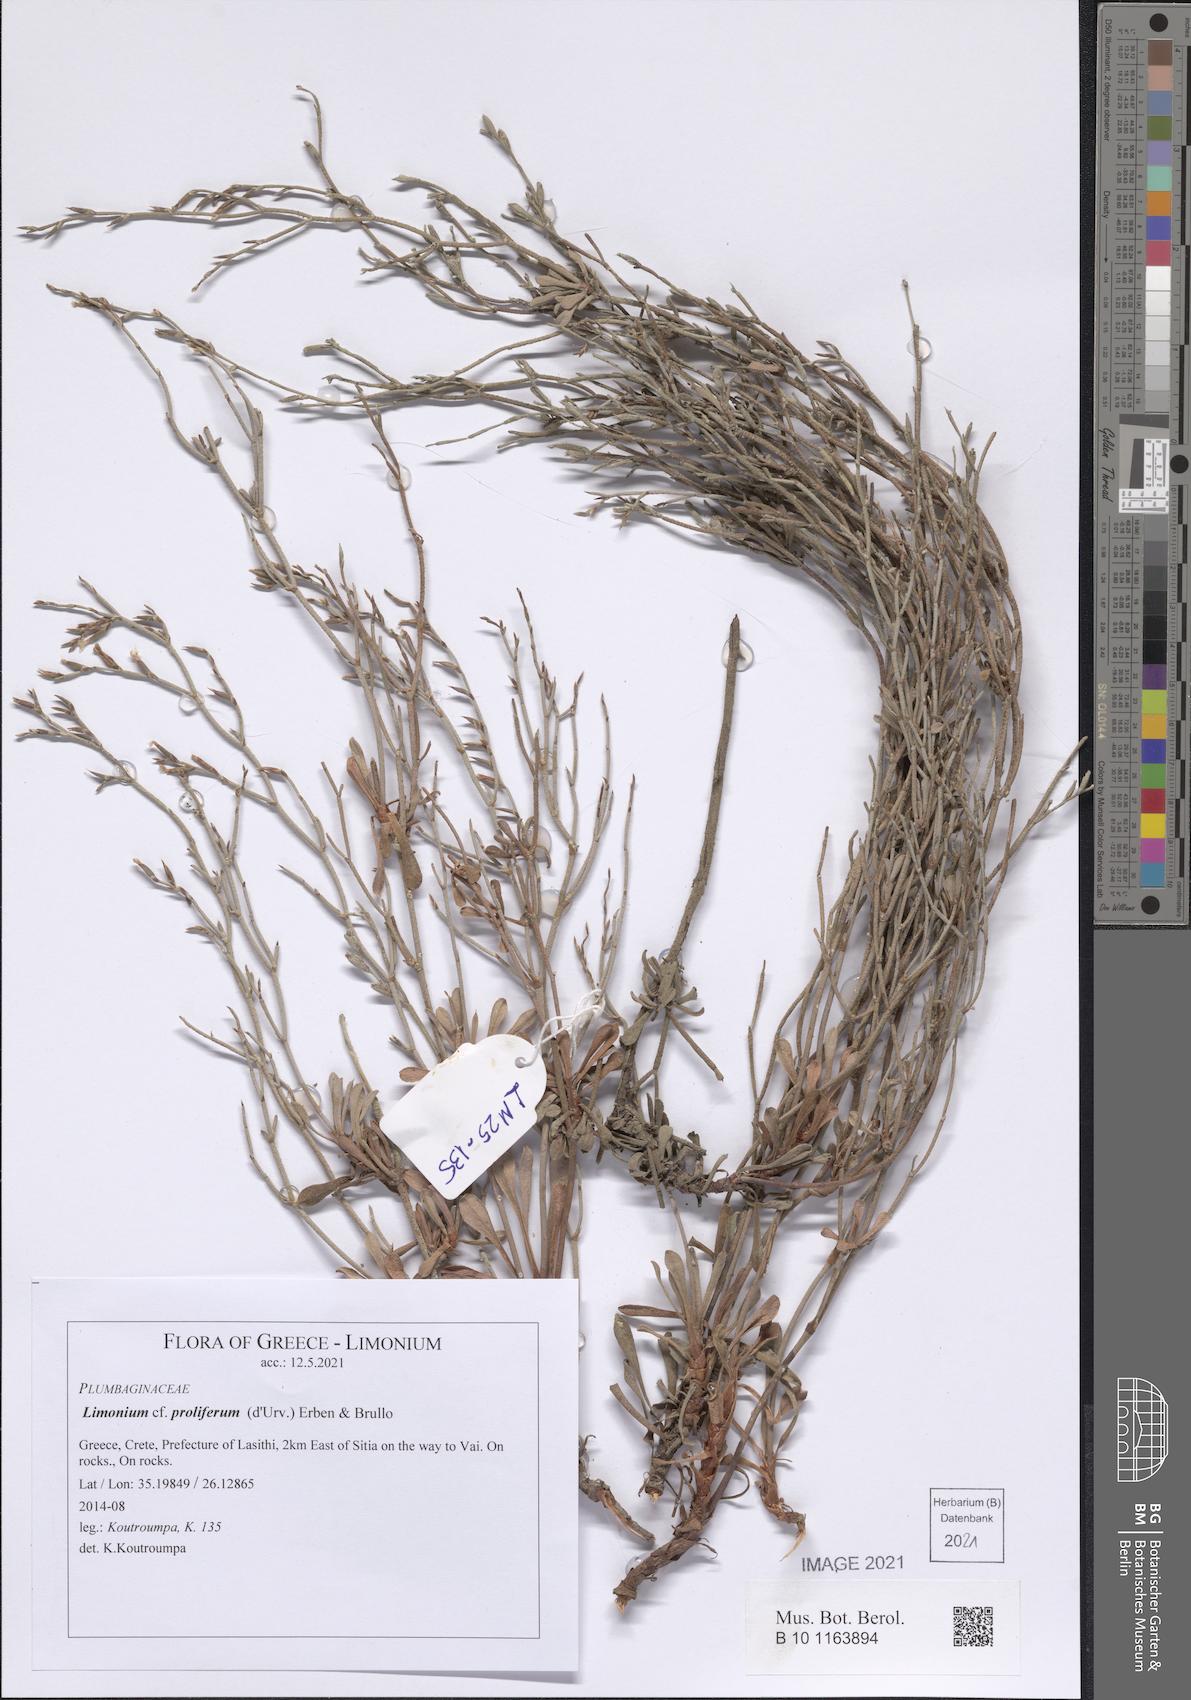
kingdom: Plantae
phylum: Tracheophyta
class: Magnoliopsida
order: Caryophyllales
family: Plumbaginaceae
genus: Limonium
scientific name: Limonium proliferum
